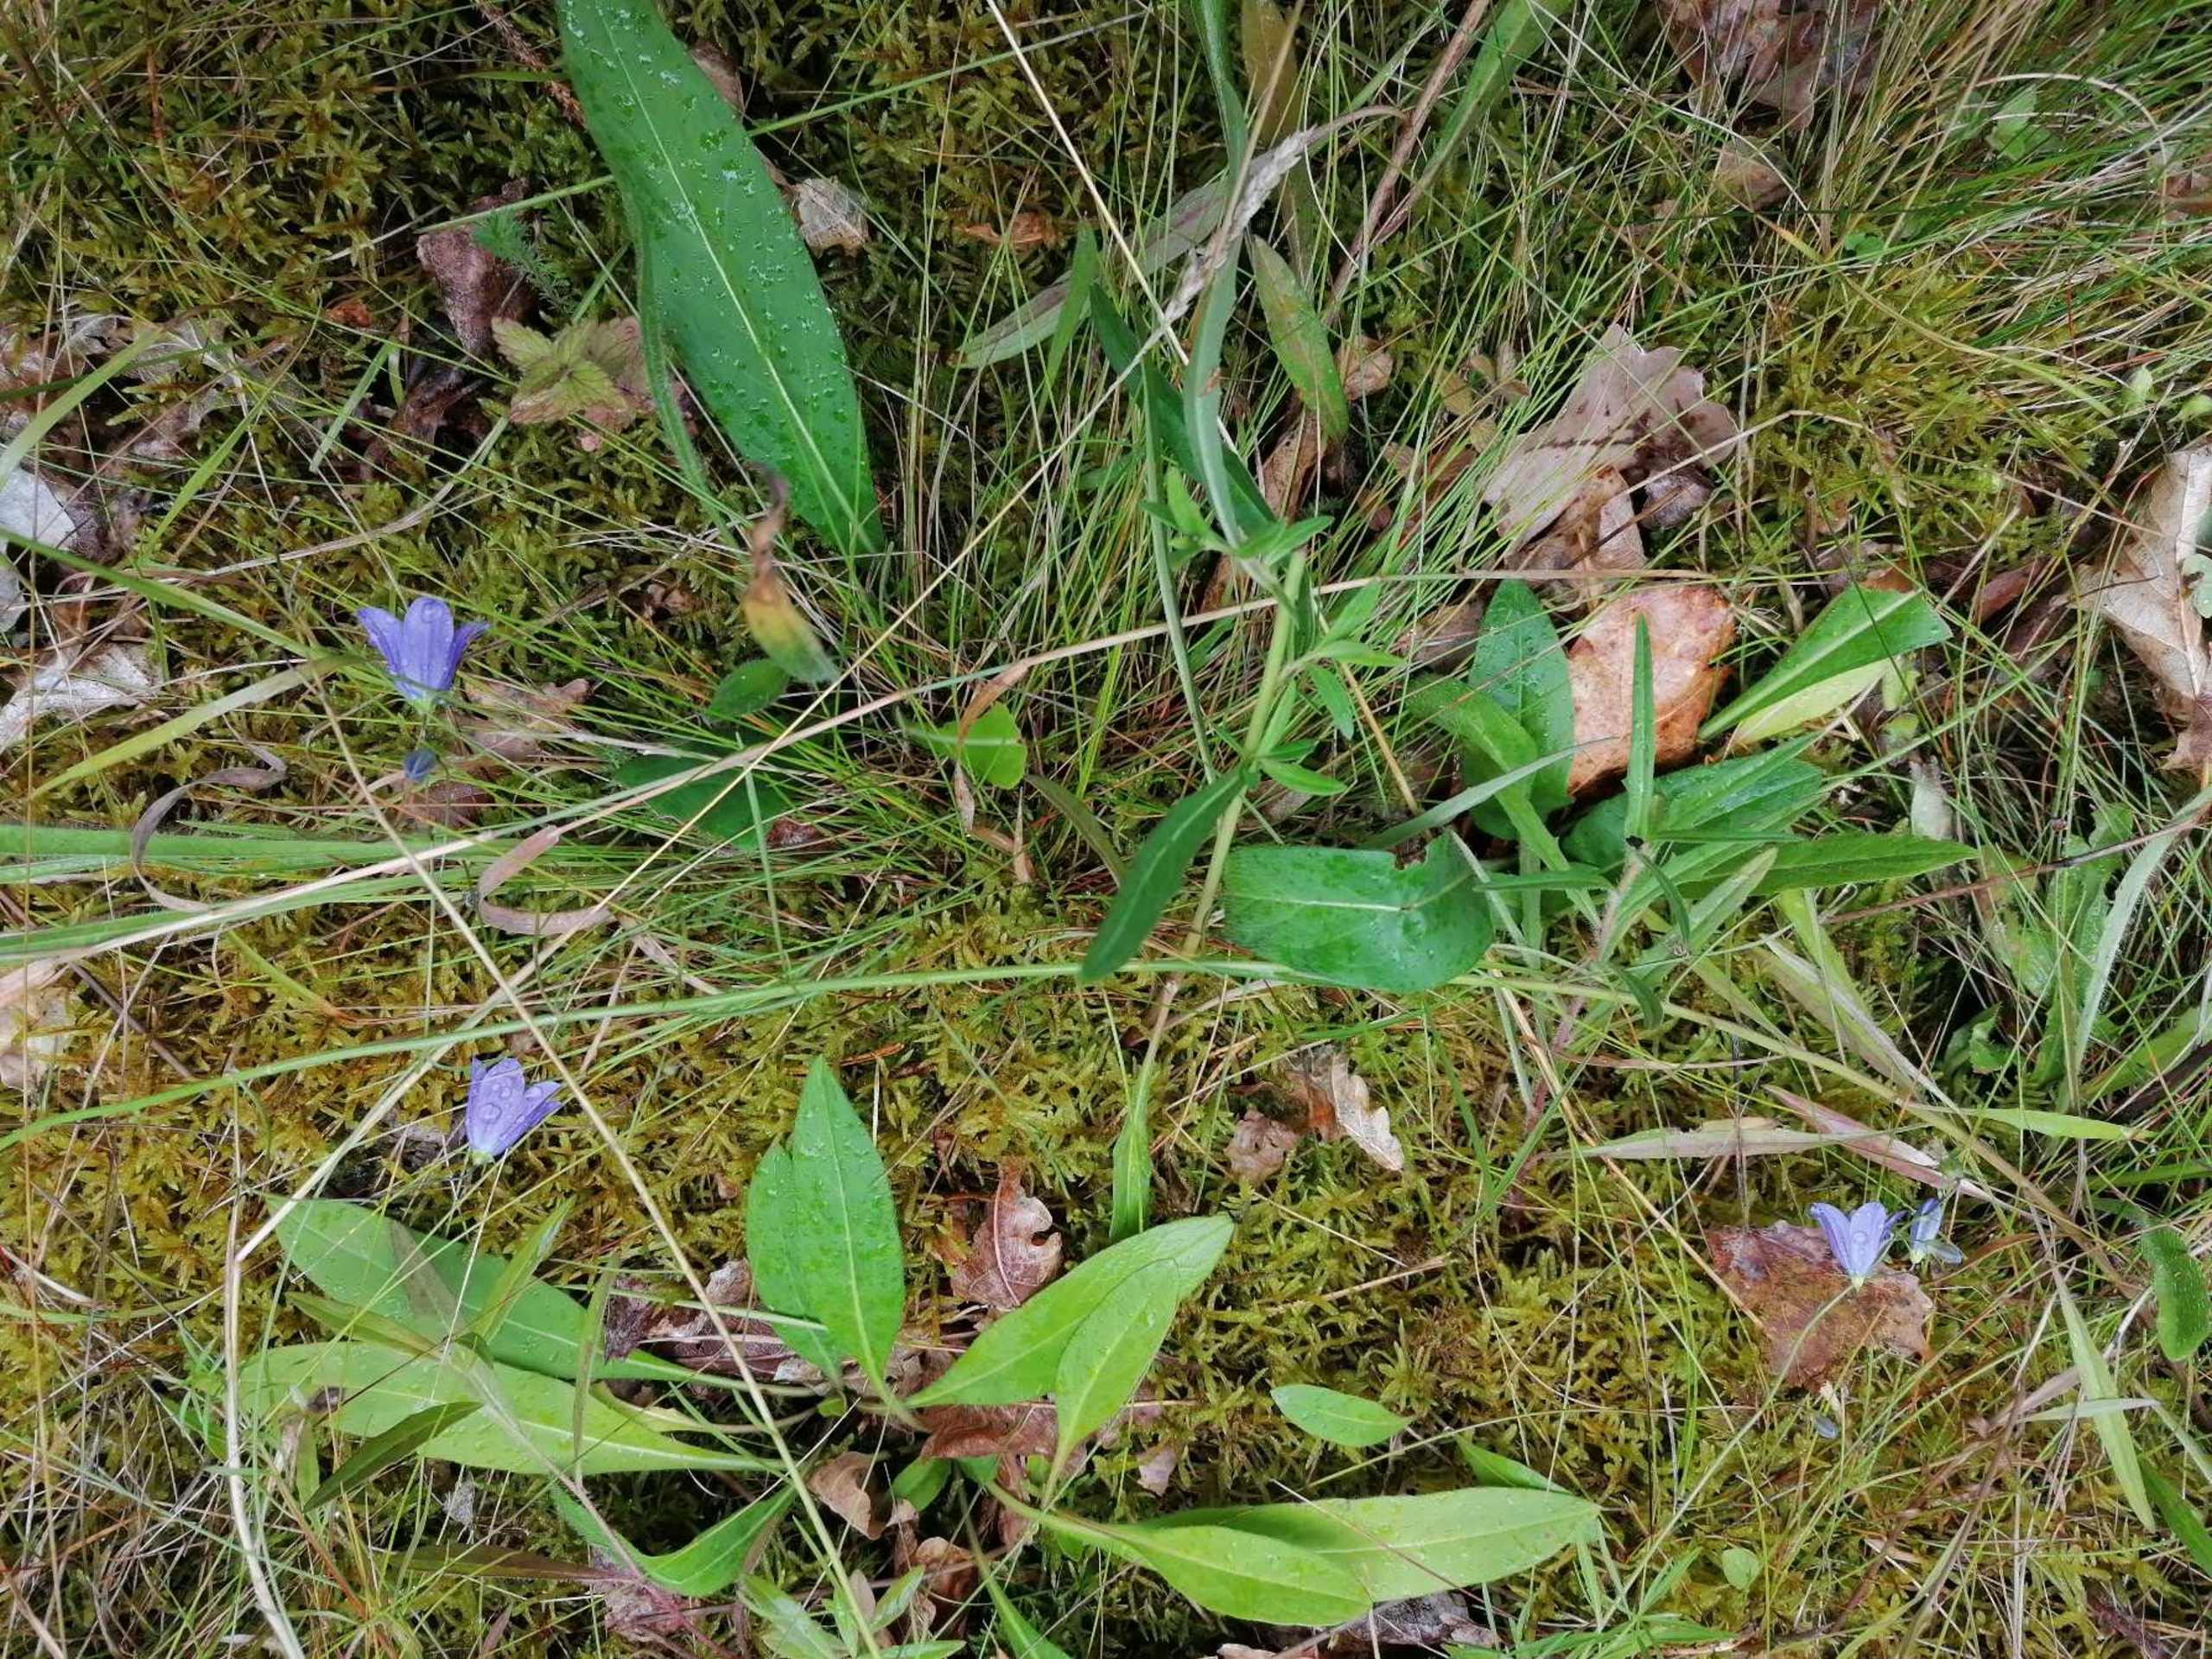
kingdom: Plantae
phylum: Tracheophyta
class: Magnoliopsida
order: Asterales
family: Campanulaceae
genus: Campanula
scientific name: Campanula rotundifolia
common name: Liden klokke
